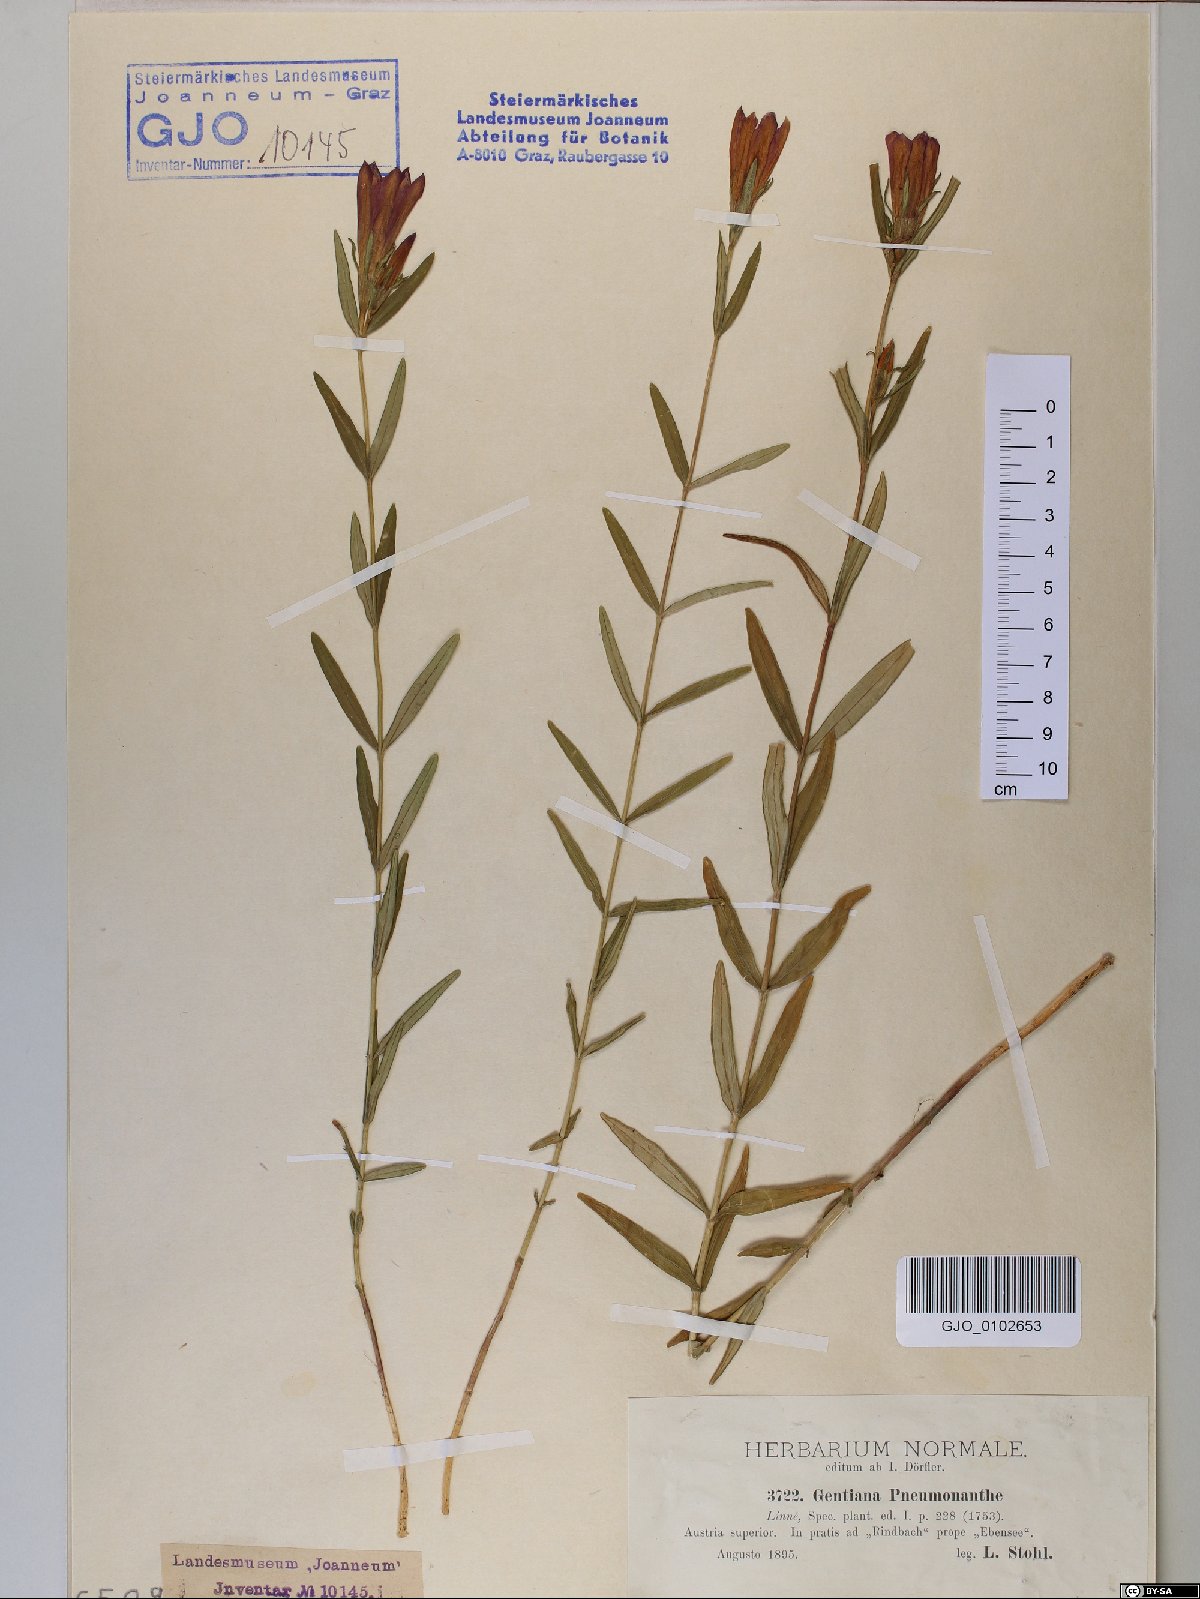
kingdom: Plantae
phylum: Tracheophyta
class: Magnoliopsida
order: Gentianales
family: Gentianaceae
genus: Gentiana
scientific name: Gentiana pneumonanthe
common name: Marsh gentian
